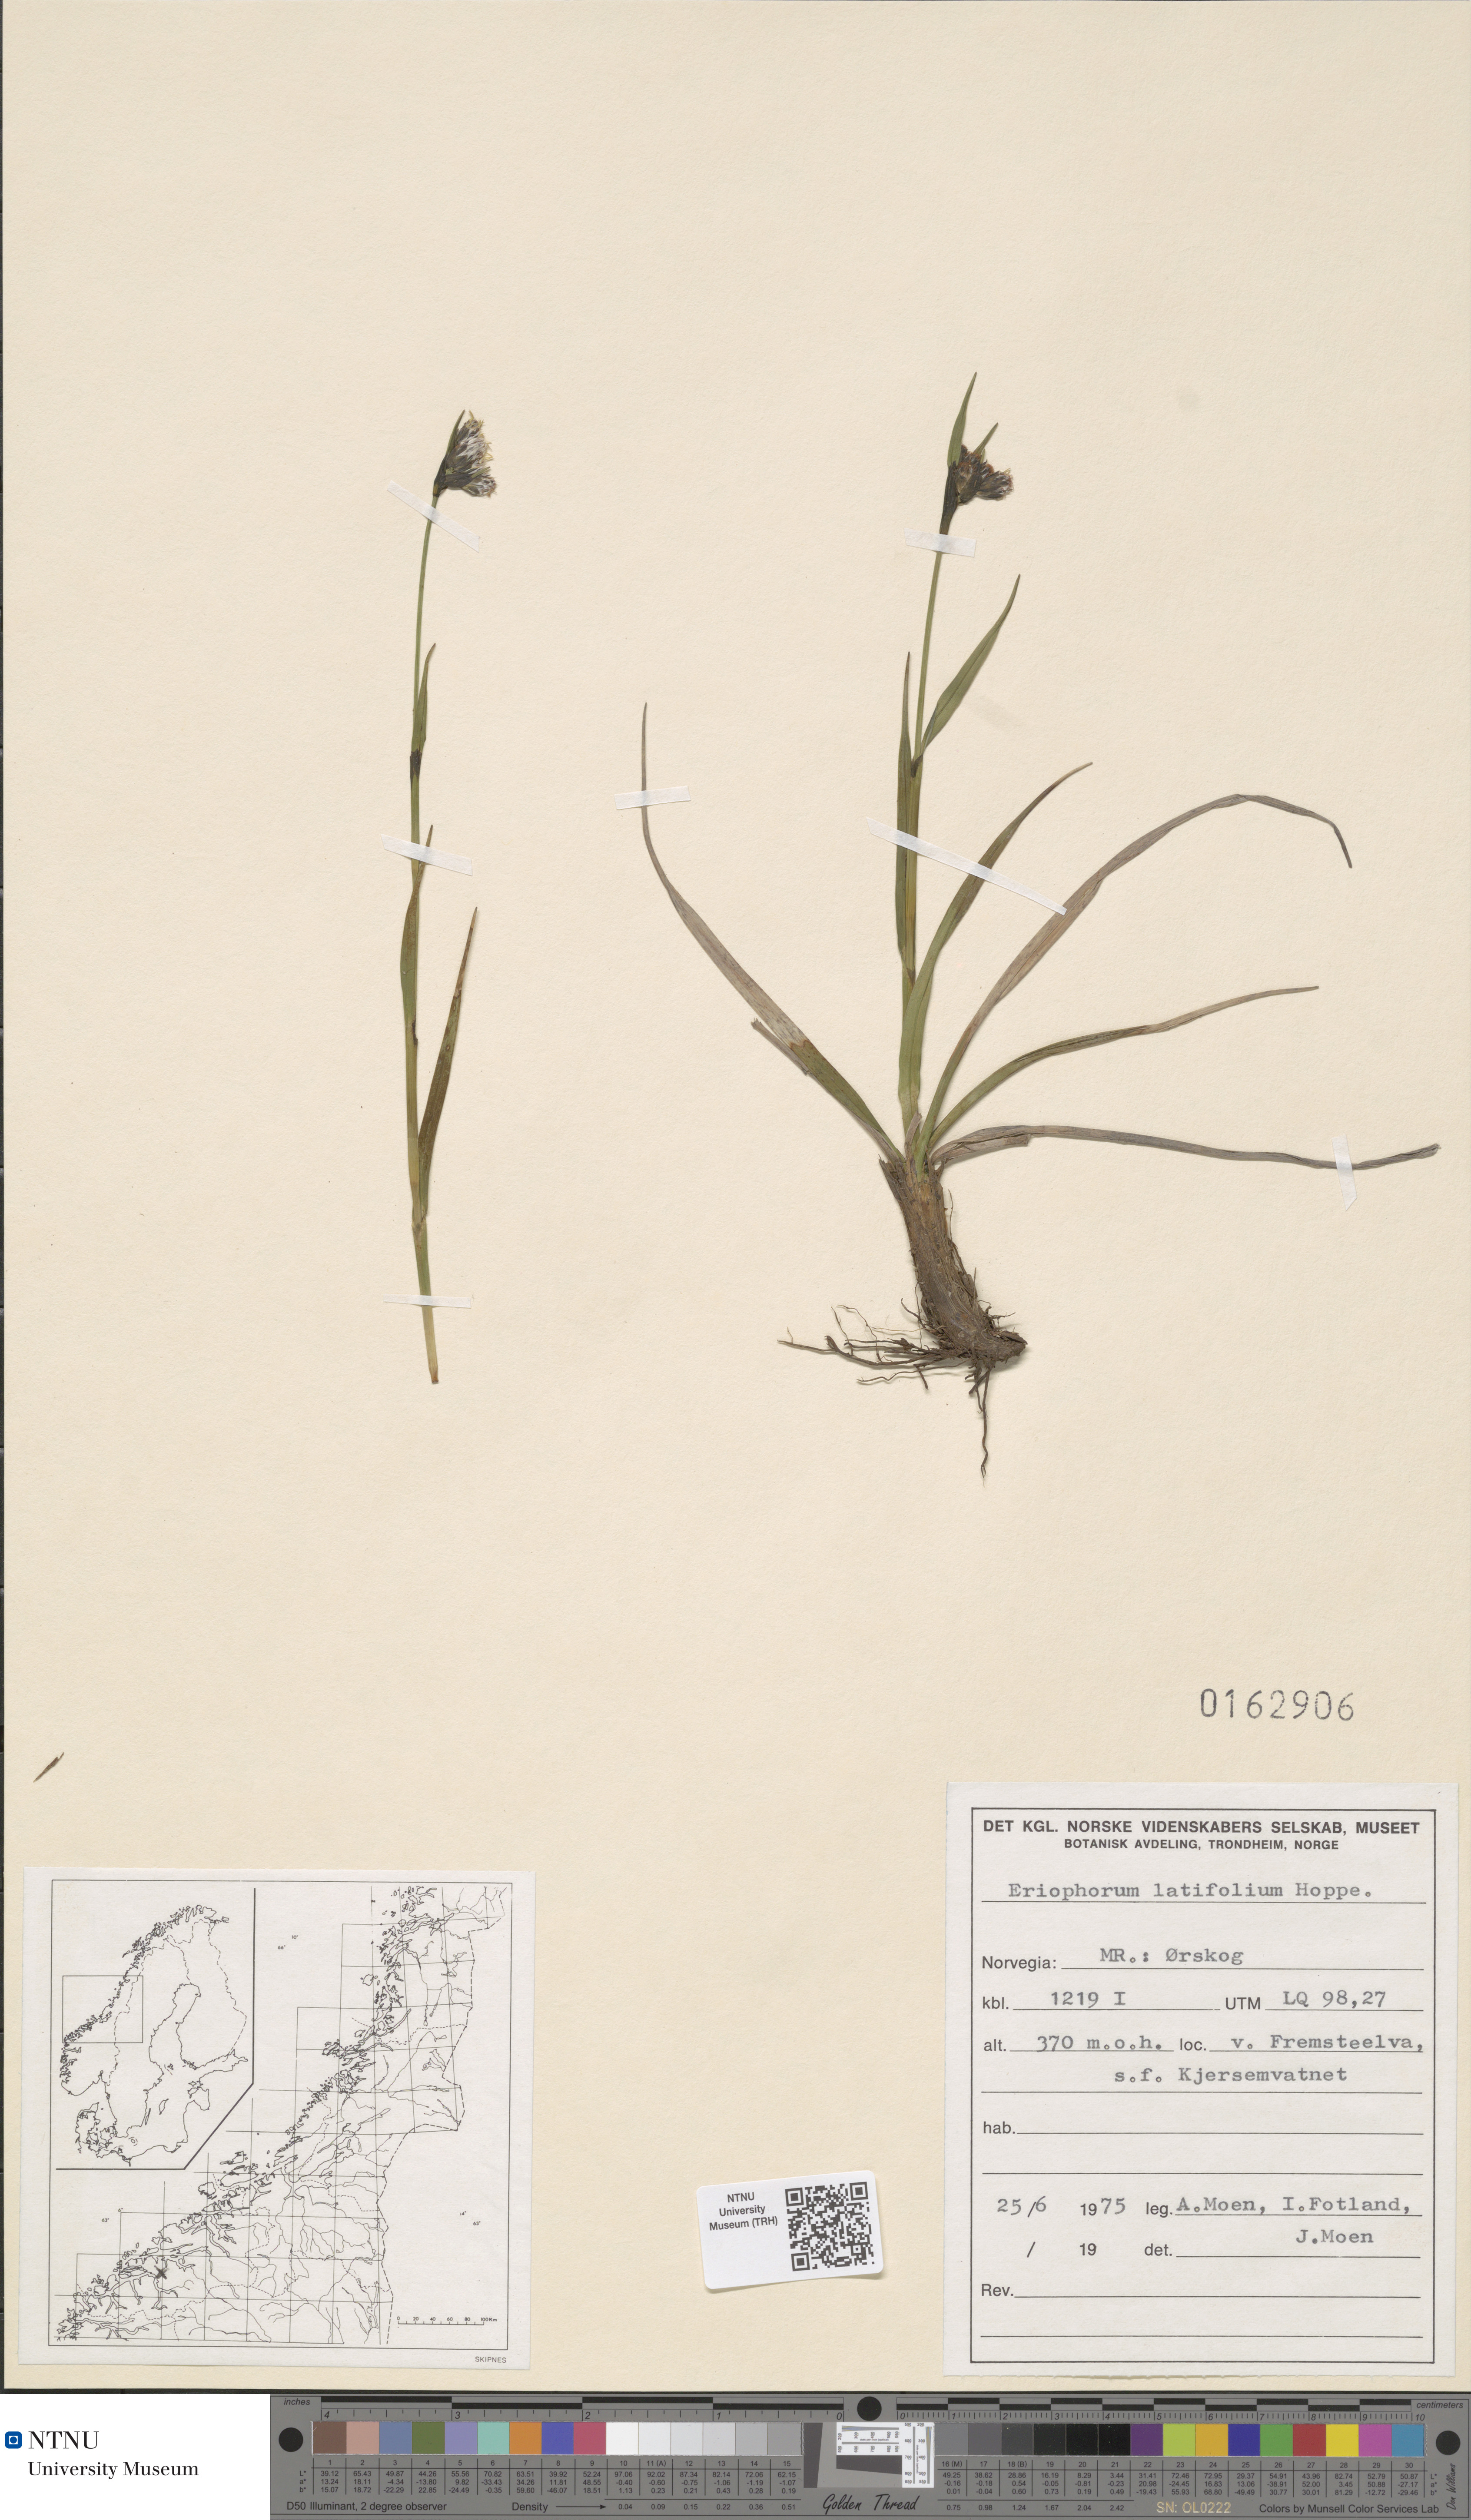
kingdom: Plantae
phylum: Tracheophyta
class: Liliopsida
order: Poales
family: Cyperaceae
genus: Eriophorum
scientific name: Eriophorum latifolium
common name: Broad-leaved cottongrass
